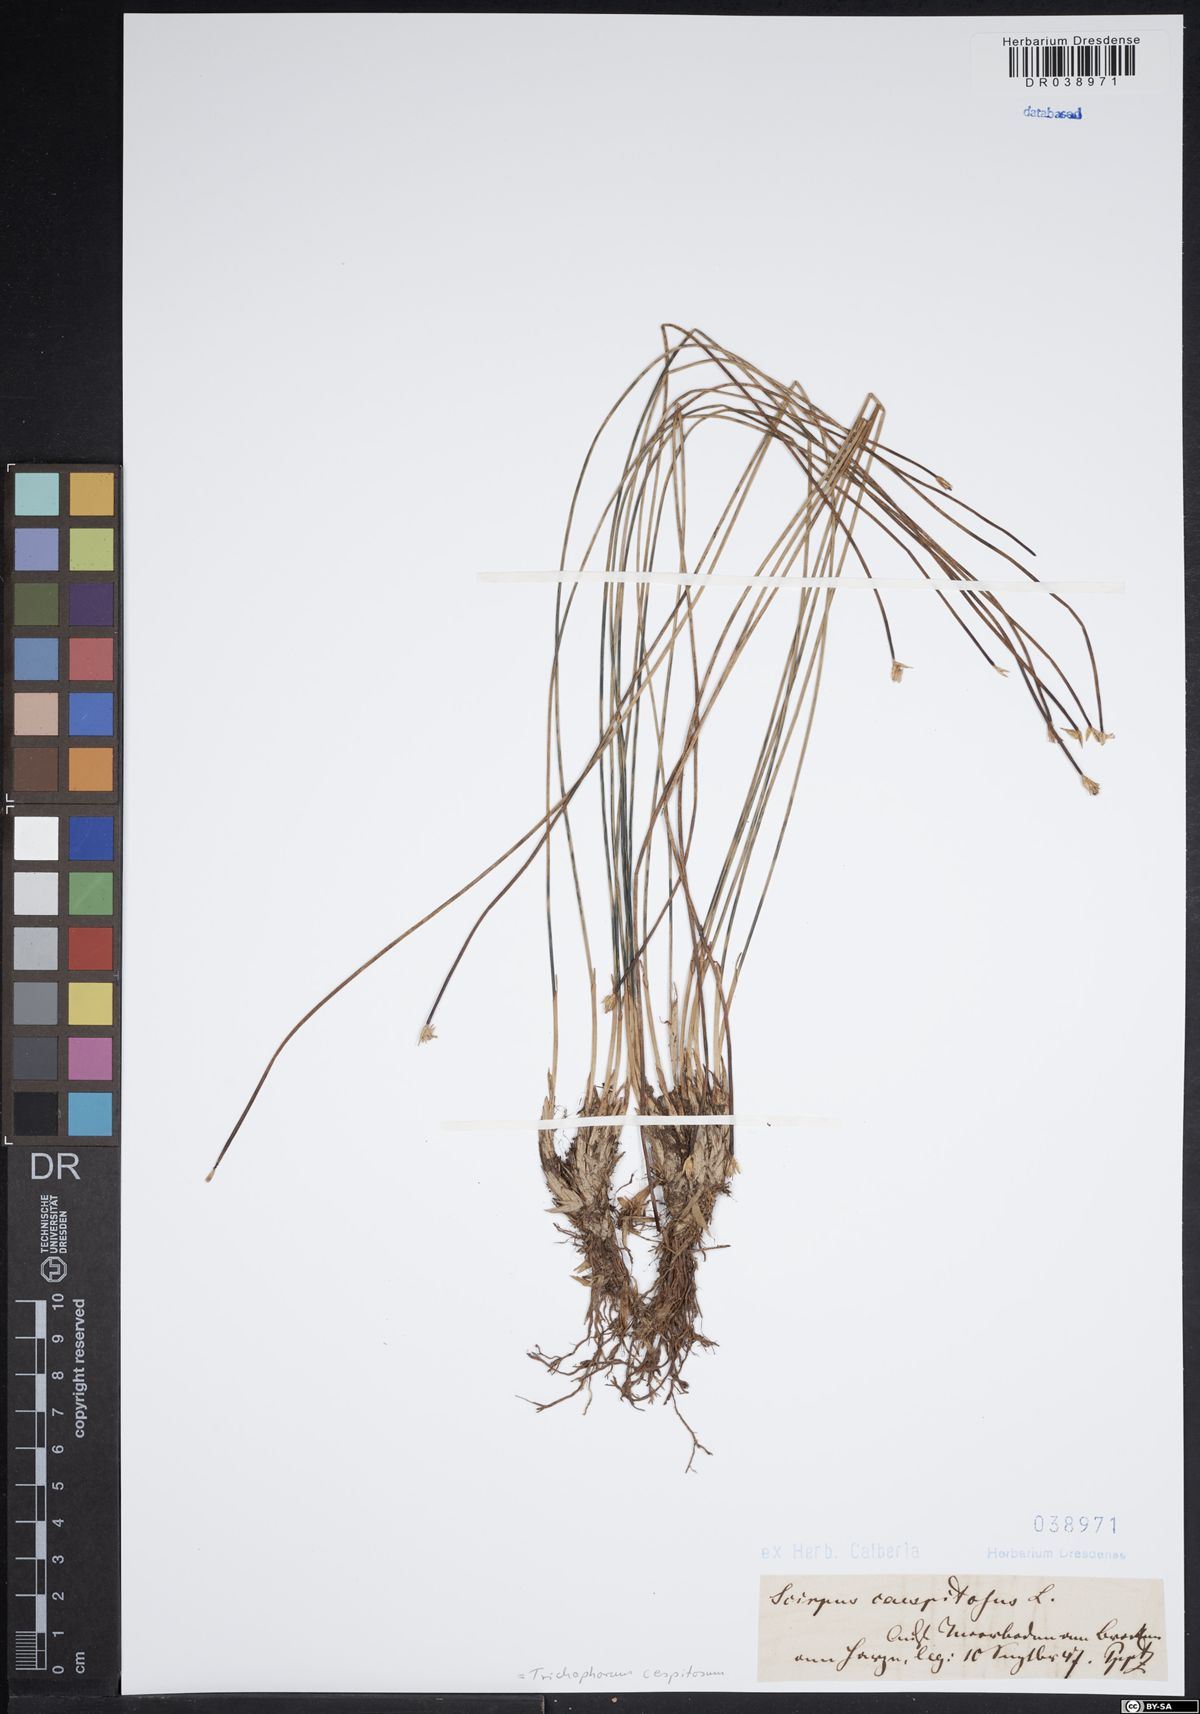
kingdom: Plantae
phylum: Tracheophyta
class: Liliopsida
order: Poales
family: Cyperaceae
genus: Trichophorum
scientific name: Trichophorum cespitosum
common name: Cespitose bulrush
